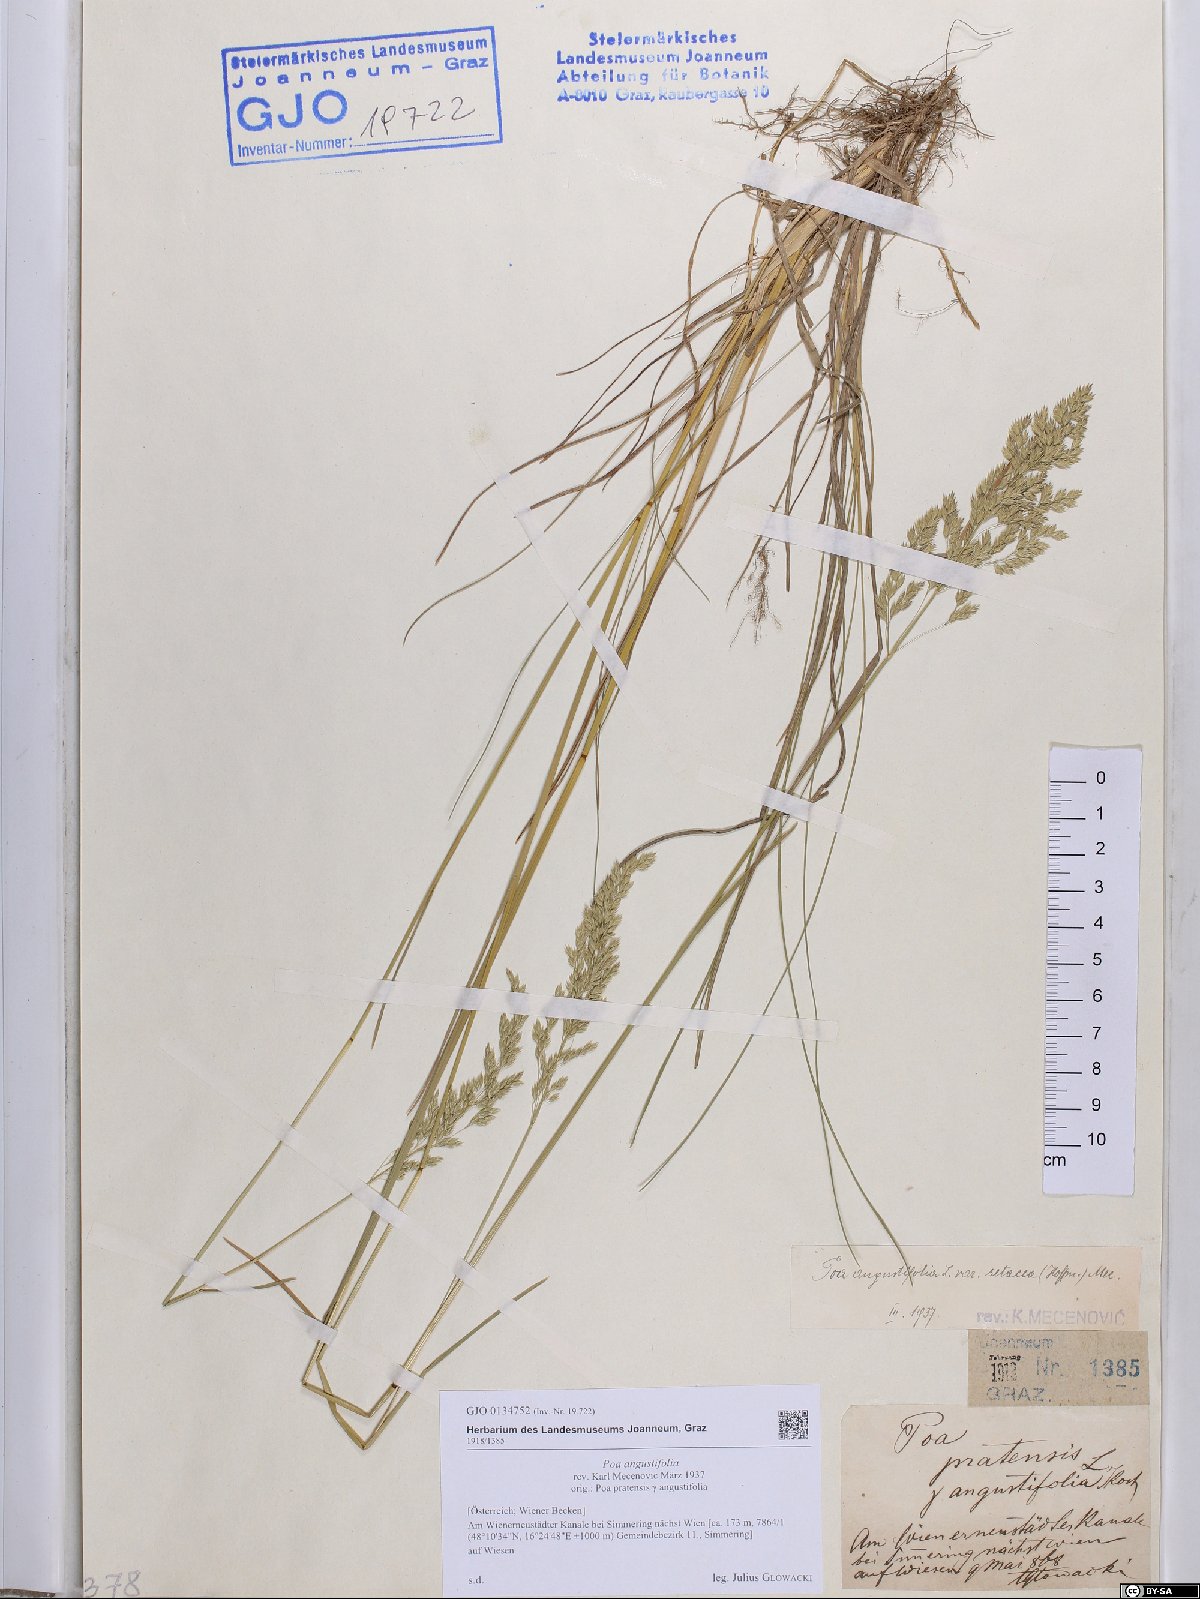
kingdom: Plantae
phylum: Tracheophyta
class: Liliopsida
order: Poales
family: Poaceae
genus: Poa
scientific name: Poa angustifolia
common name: Narrow-leaved meadow-grass
